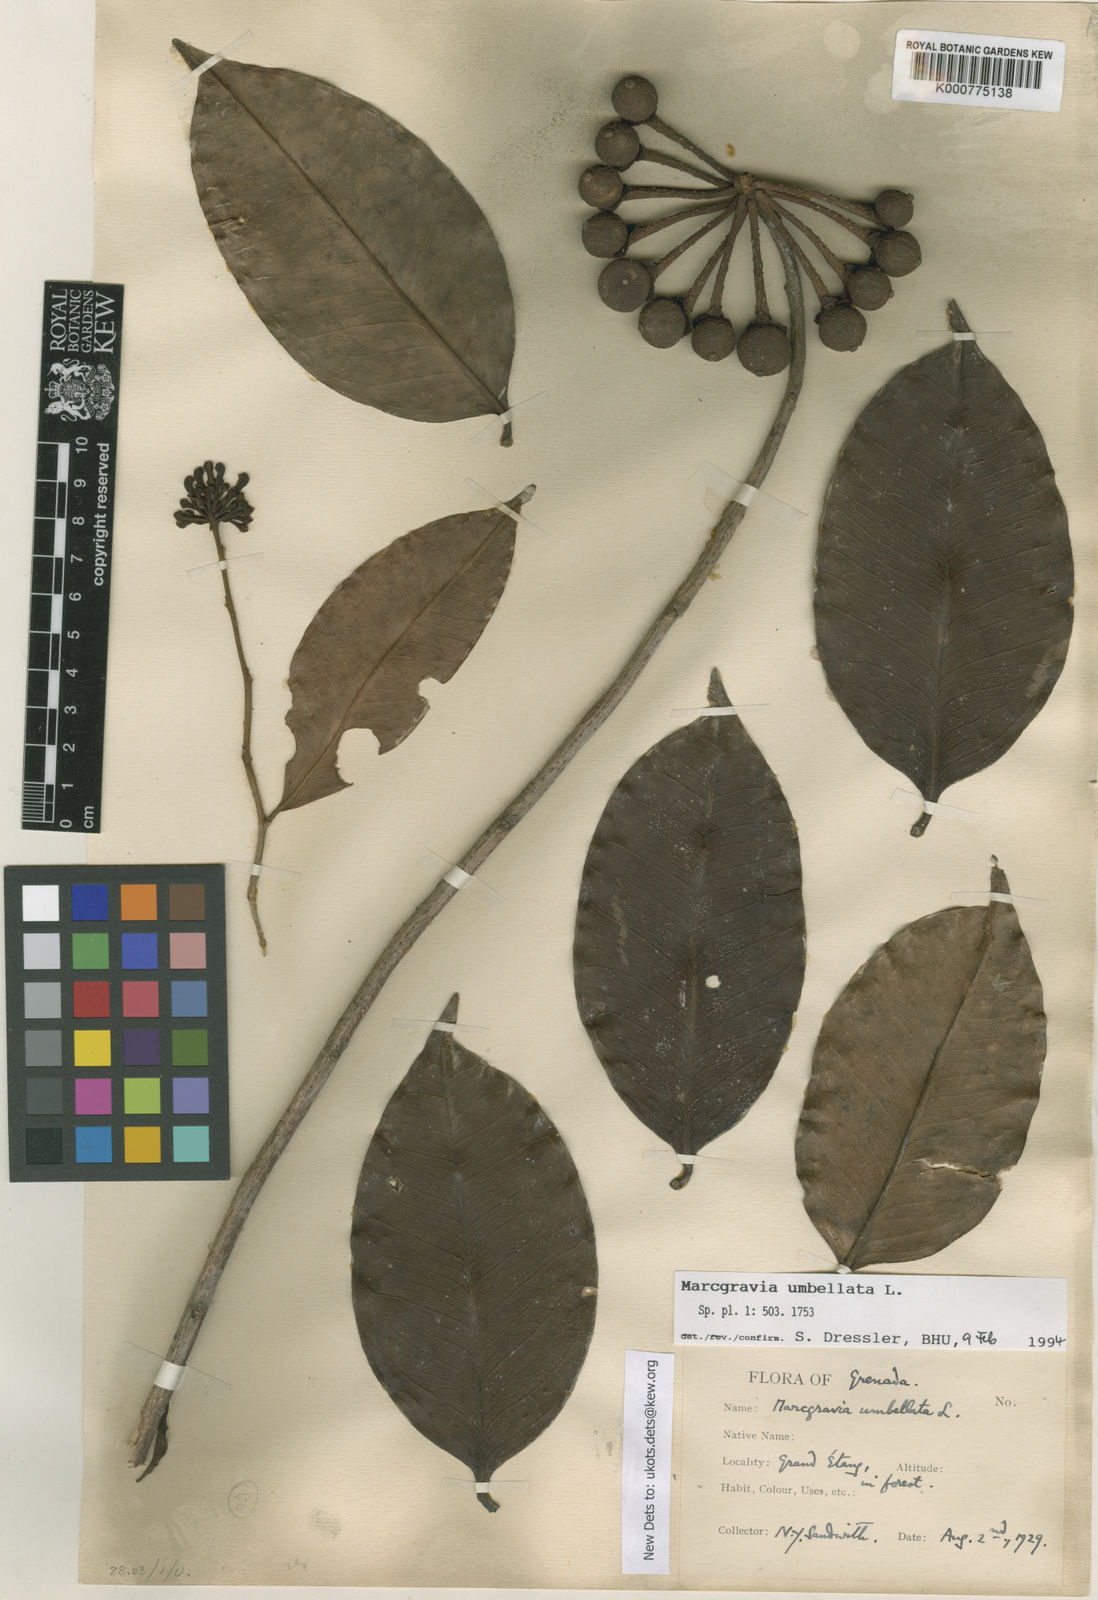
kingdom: Plantae
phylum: Tracheophyta
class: Liliopsida
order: Poales
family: Poaceae
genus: Chusquea
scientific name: Chusquea
